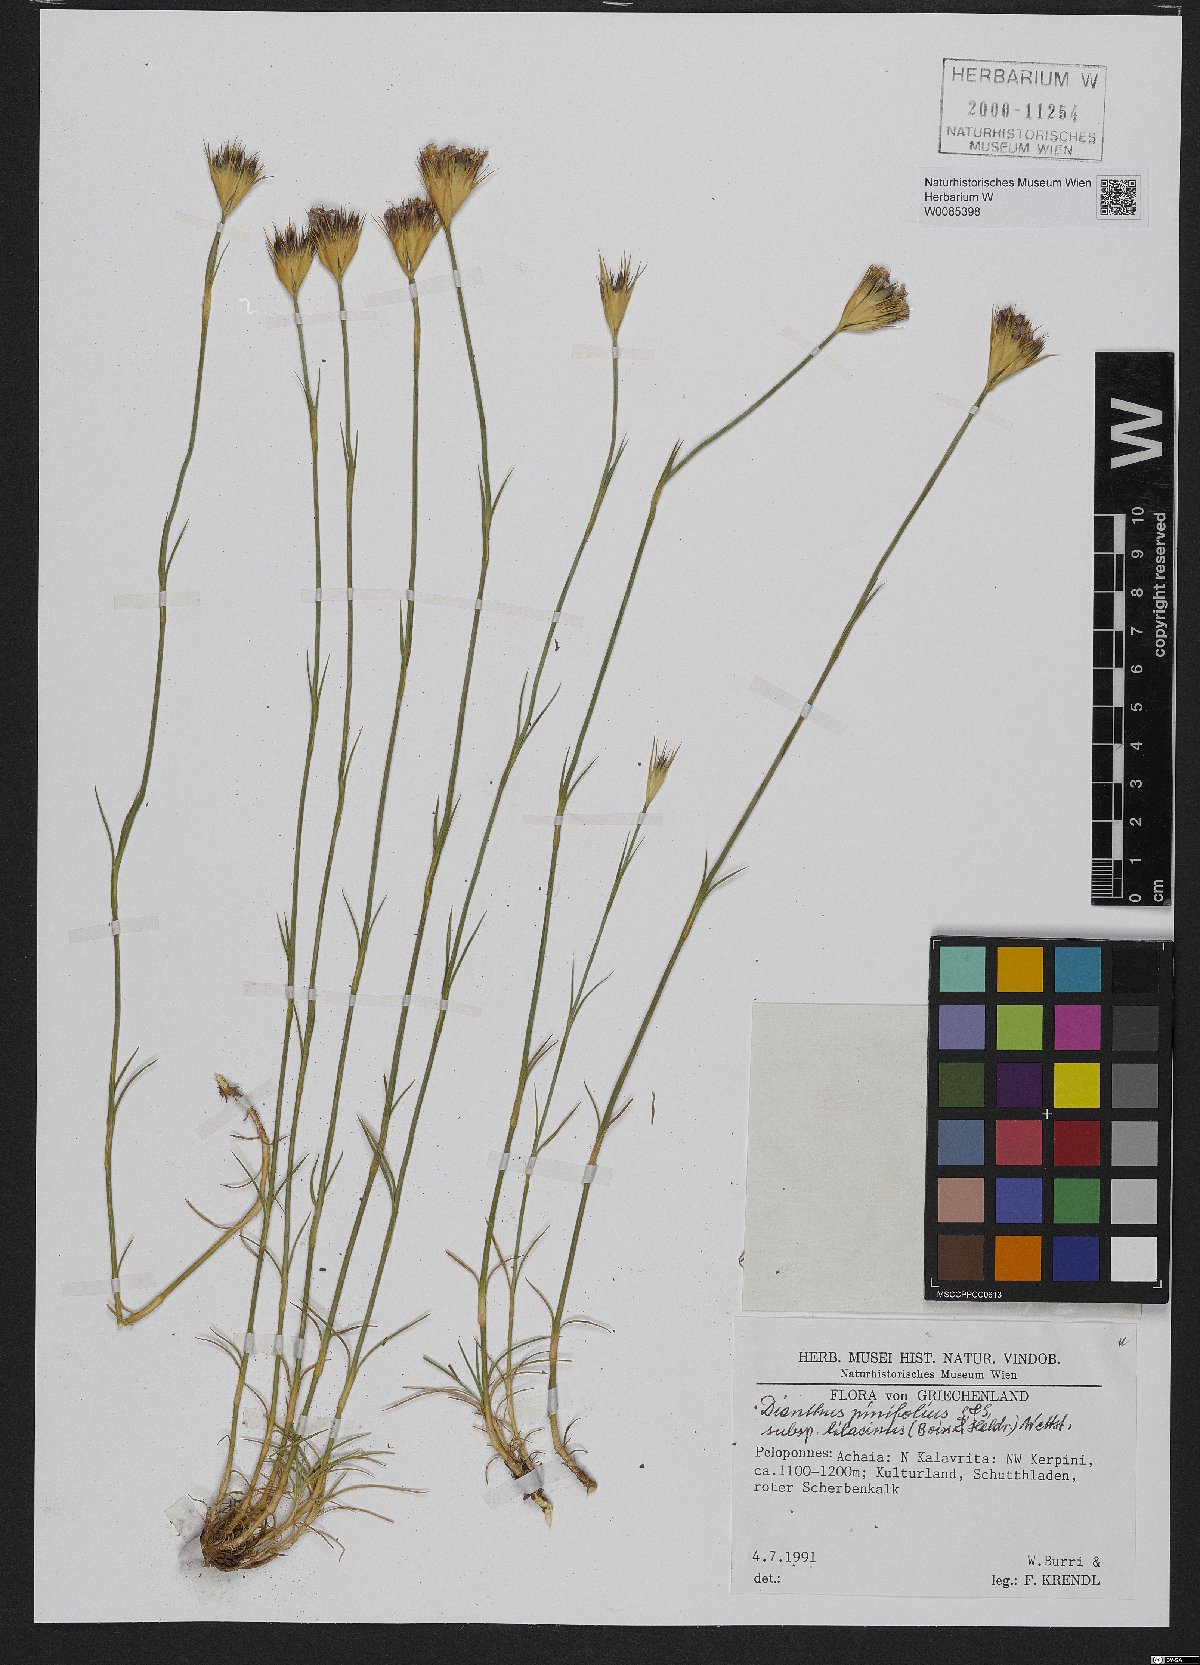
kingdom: Plantae
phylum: Tracheophyta
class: Magnoliopsida
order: Caryophyllales
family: Caryophyllaceae
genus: Dianthus
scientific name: Dianthus pinifolius
